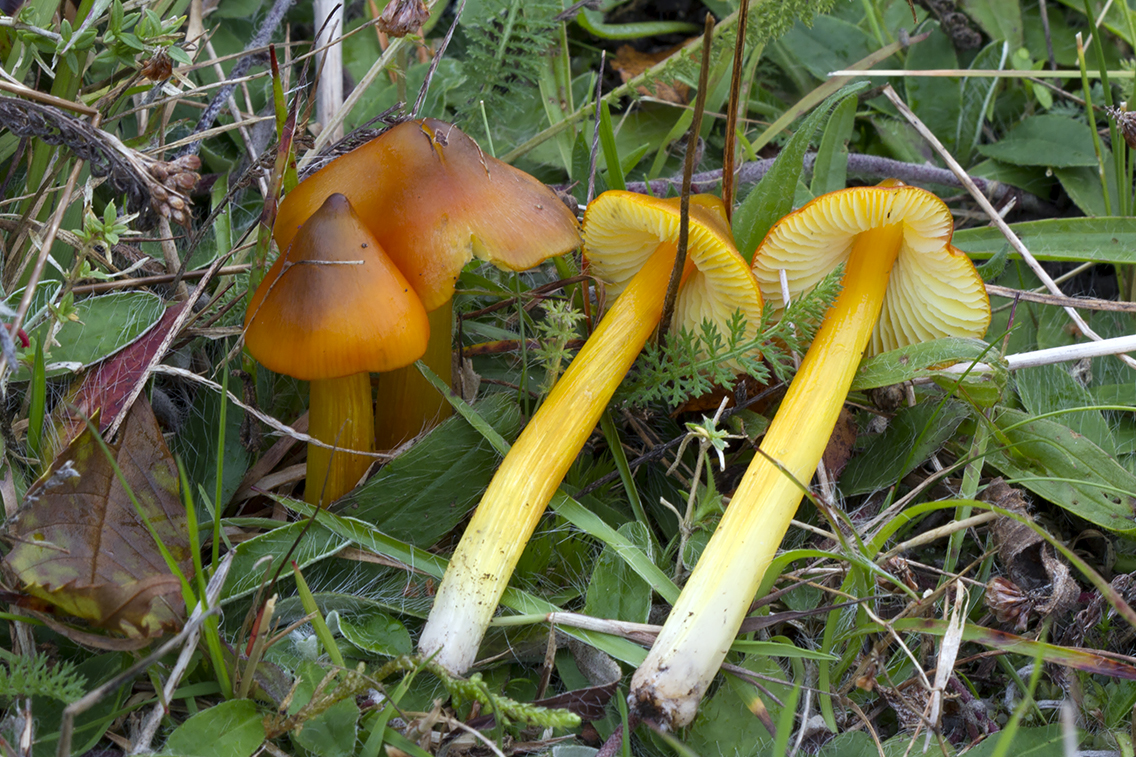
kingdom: Fungi
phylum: Basidiomycota
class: Agaricomycetes
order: Agaricales
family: Hygrophoraceae
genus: Hygrocybe
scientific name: Hygrocybe conica
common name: kegle-vokshat
